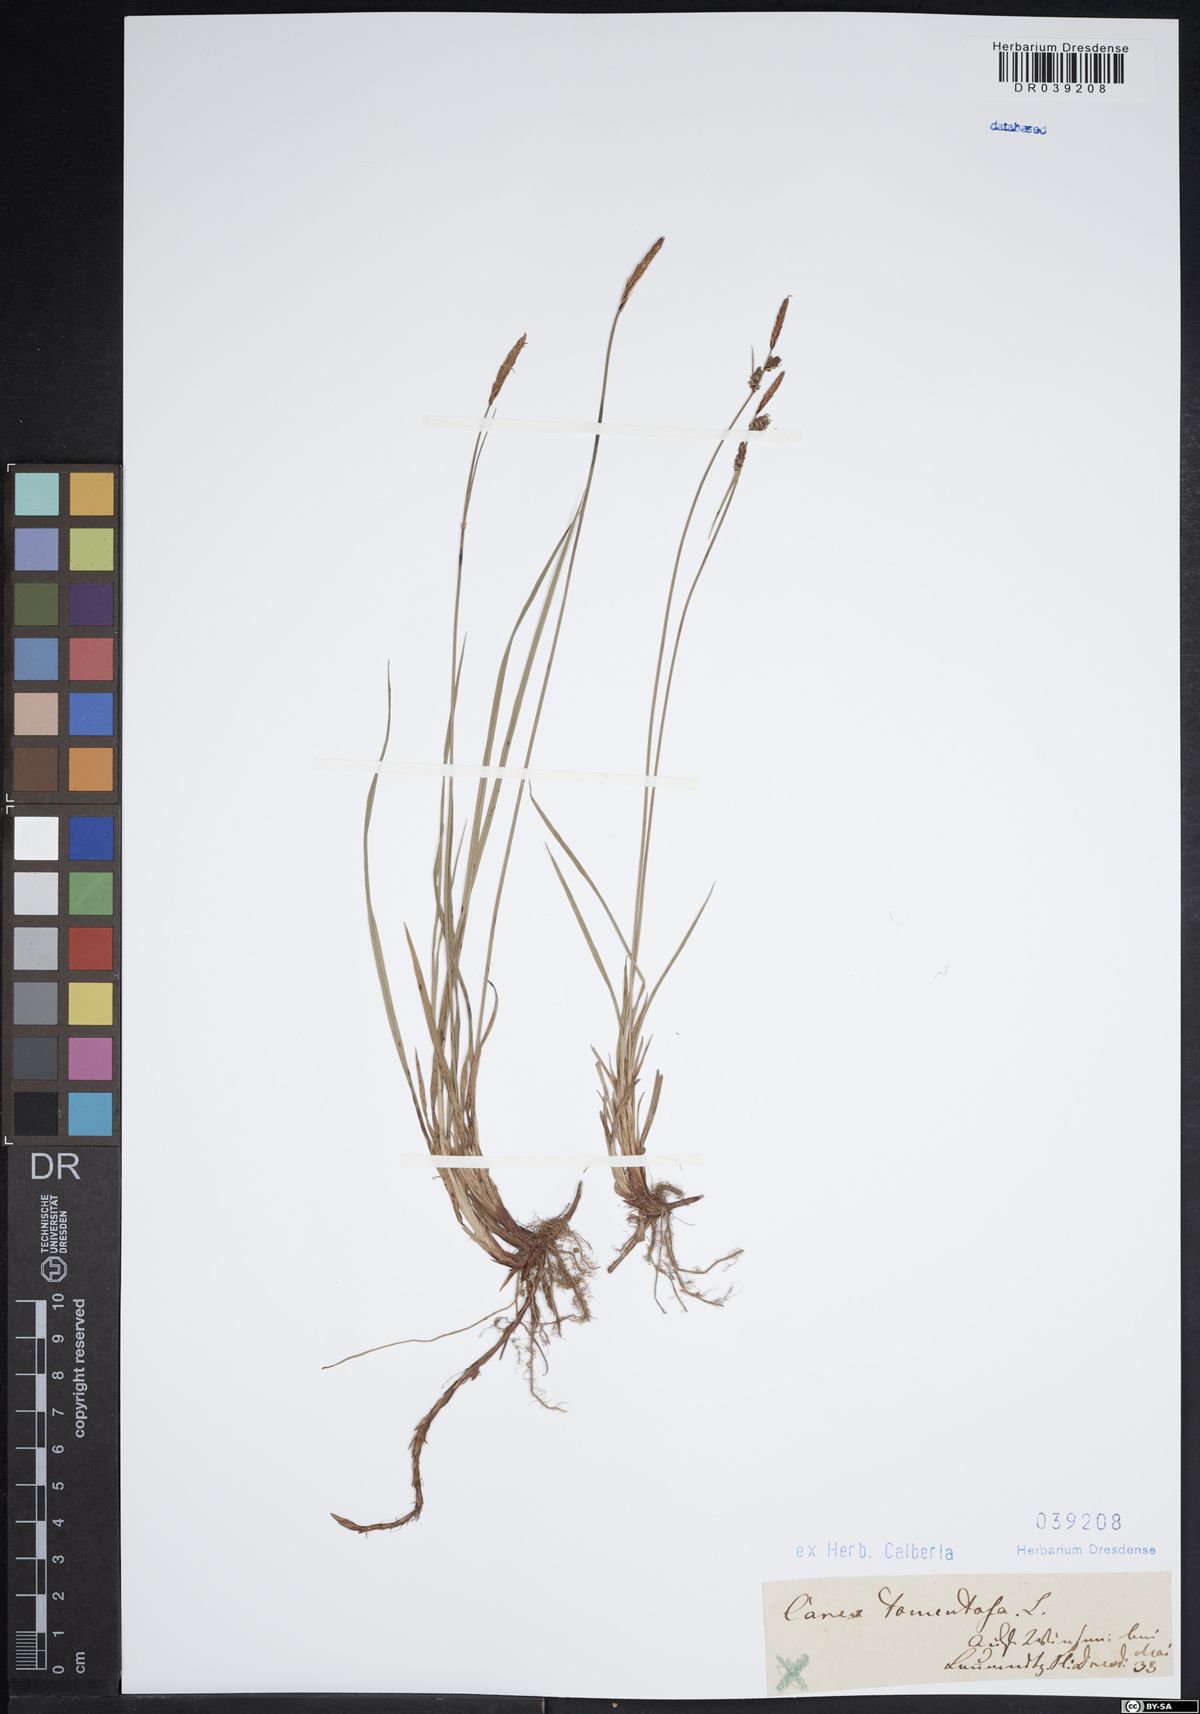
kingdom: Plantae
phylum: Tracheophyta
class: Liliopsida
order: Poales
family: Cyperaceae
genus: Carex
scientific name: Carex tomentosa
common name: Downy-fruited sedge
